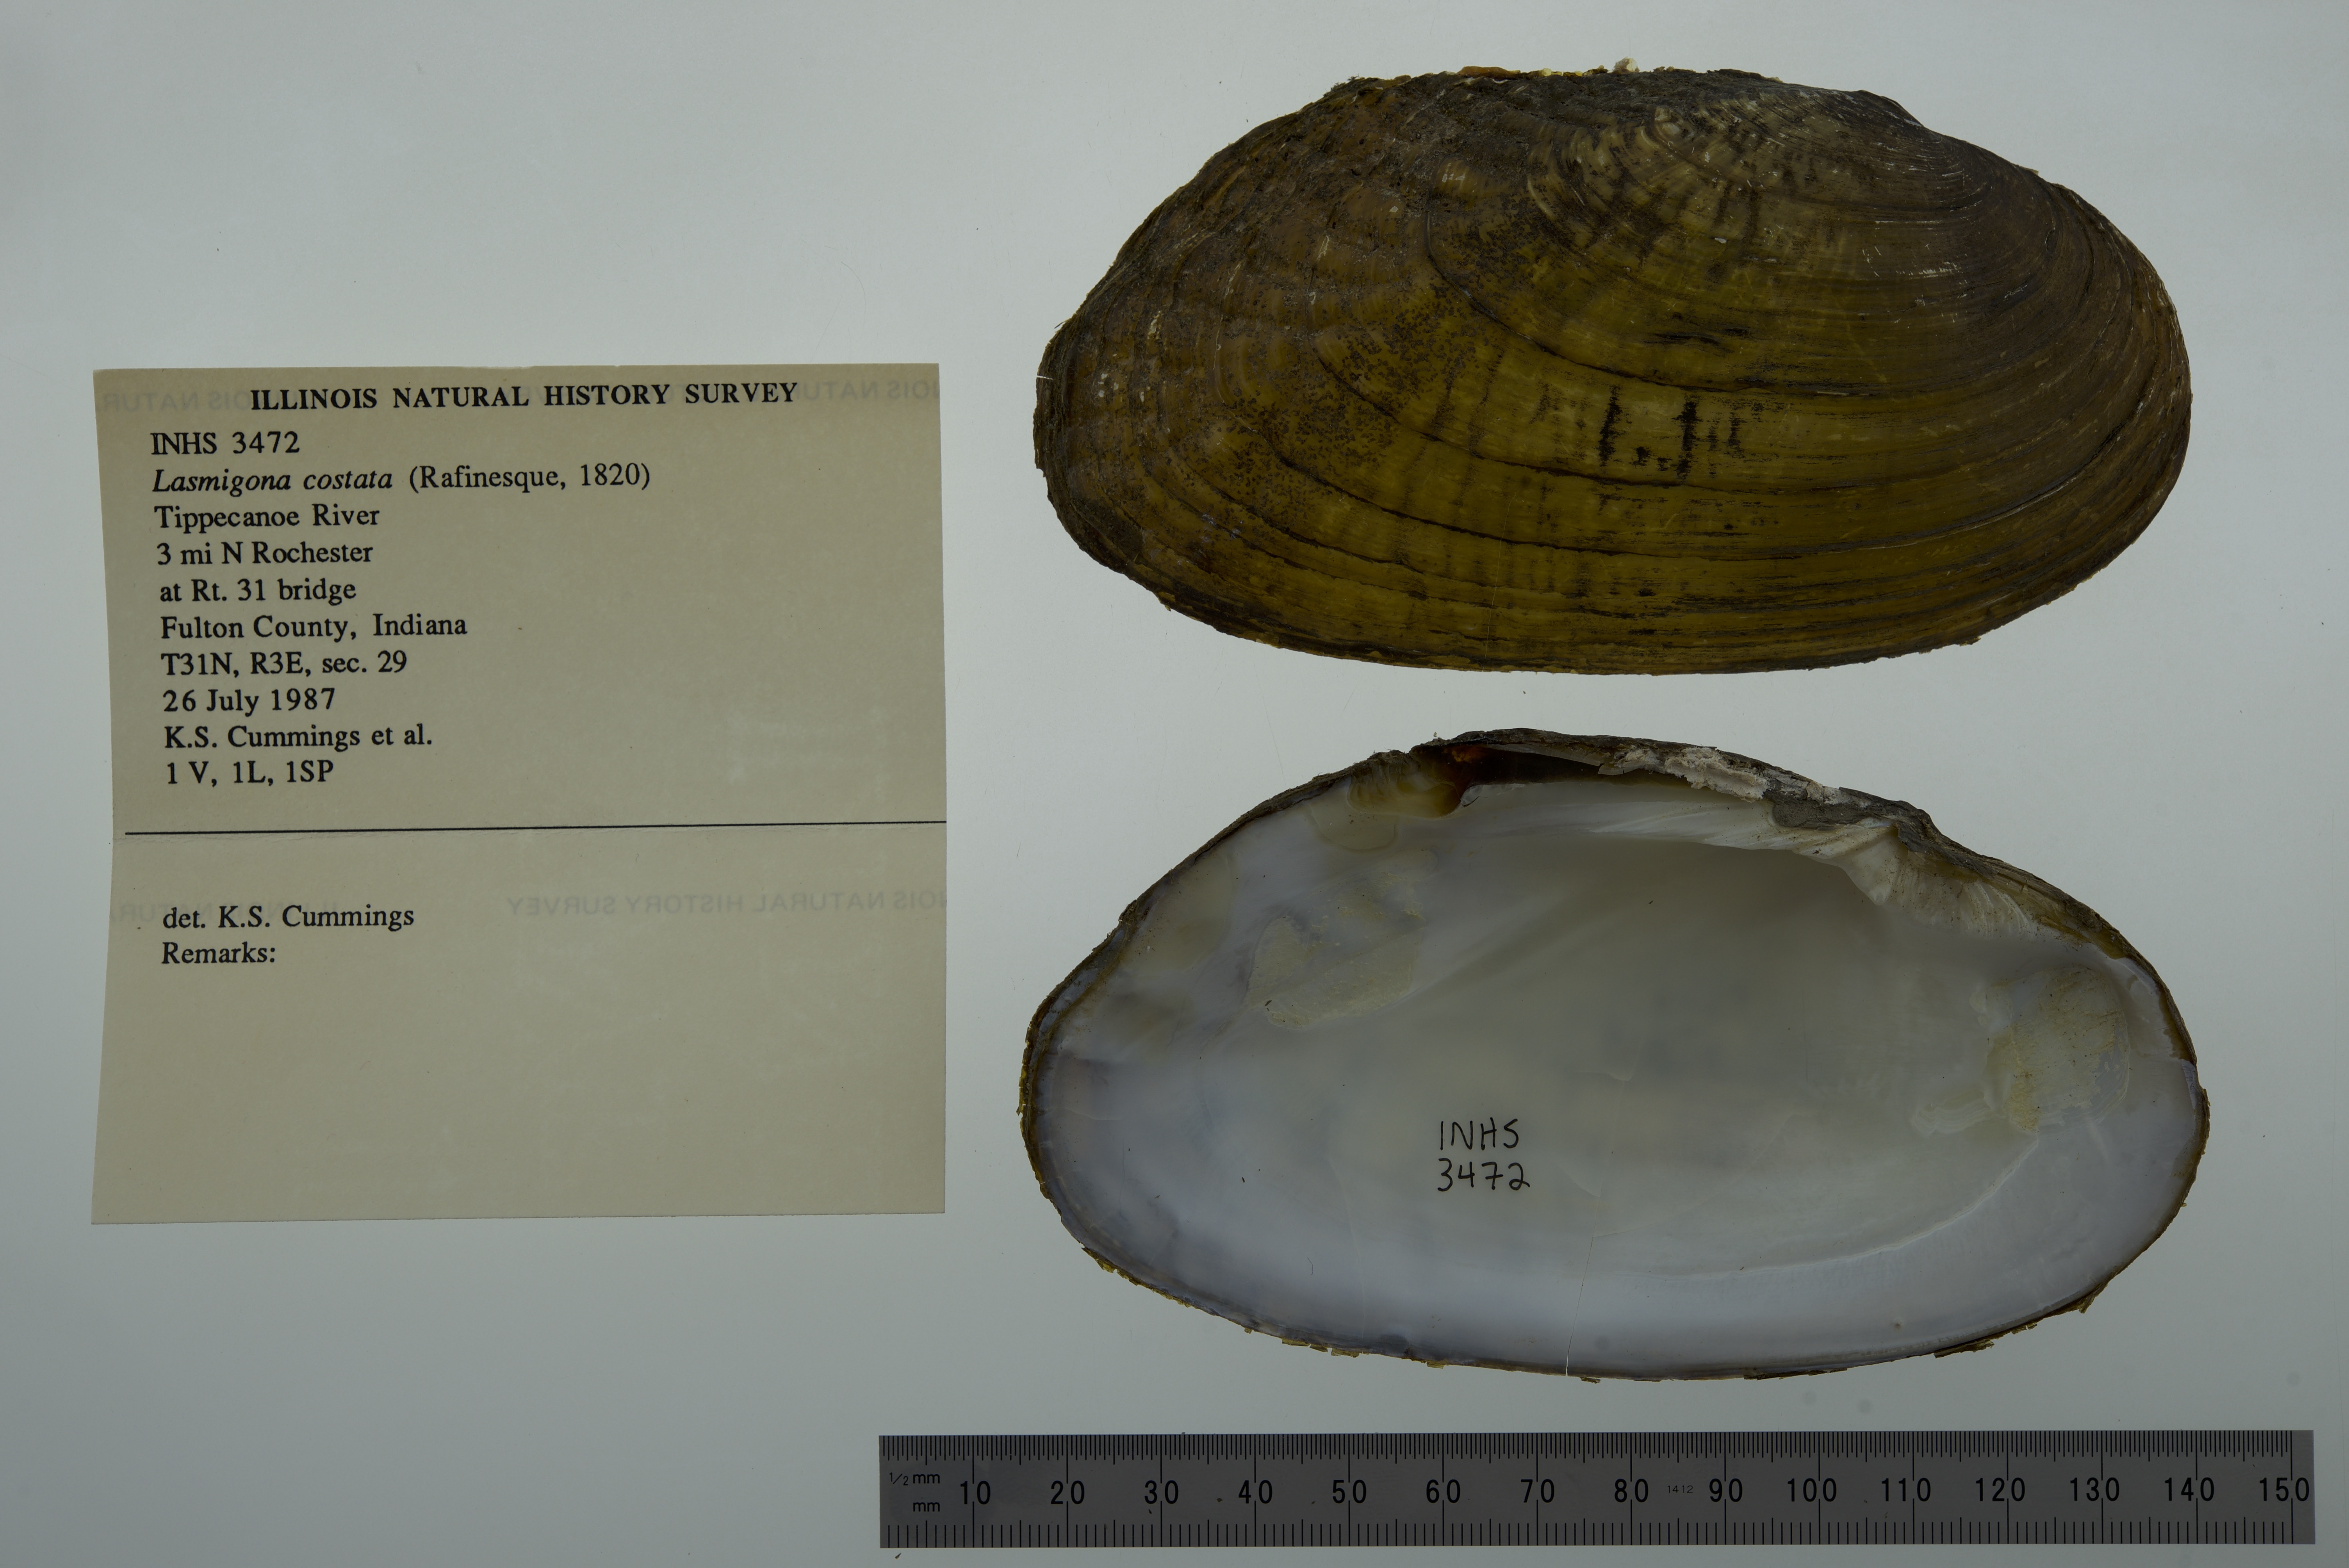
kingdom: Animalia
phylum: Mollusca
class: Bivalvia
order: Unionida
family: Unionidae
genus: Lasmigona
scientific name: Lasmigona costata
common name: Flutedshell
